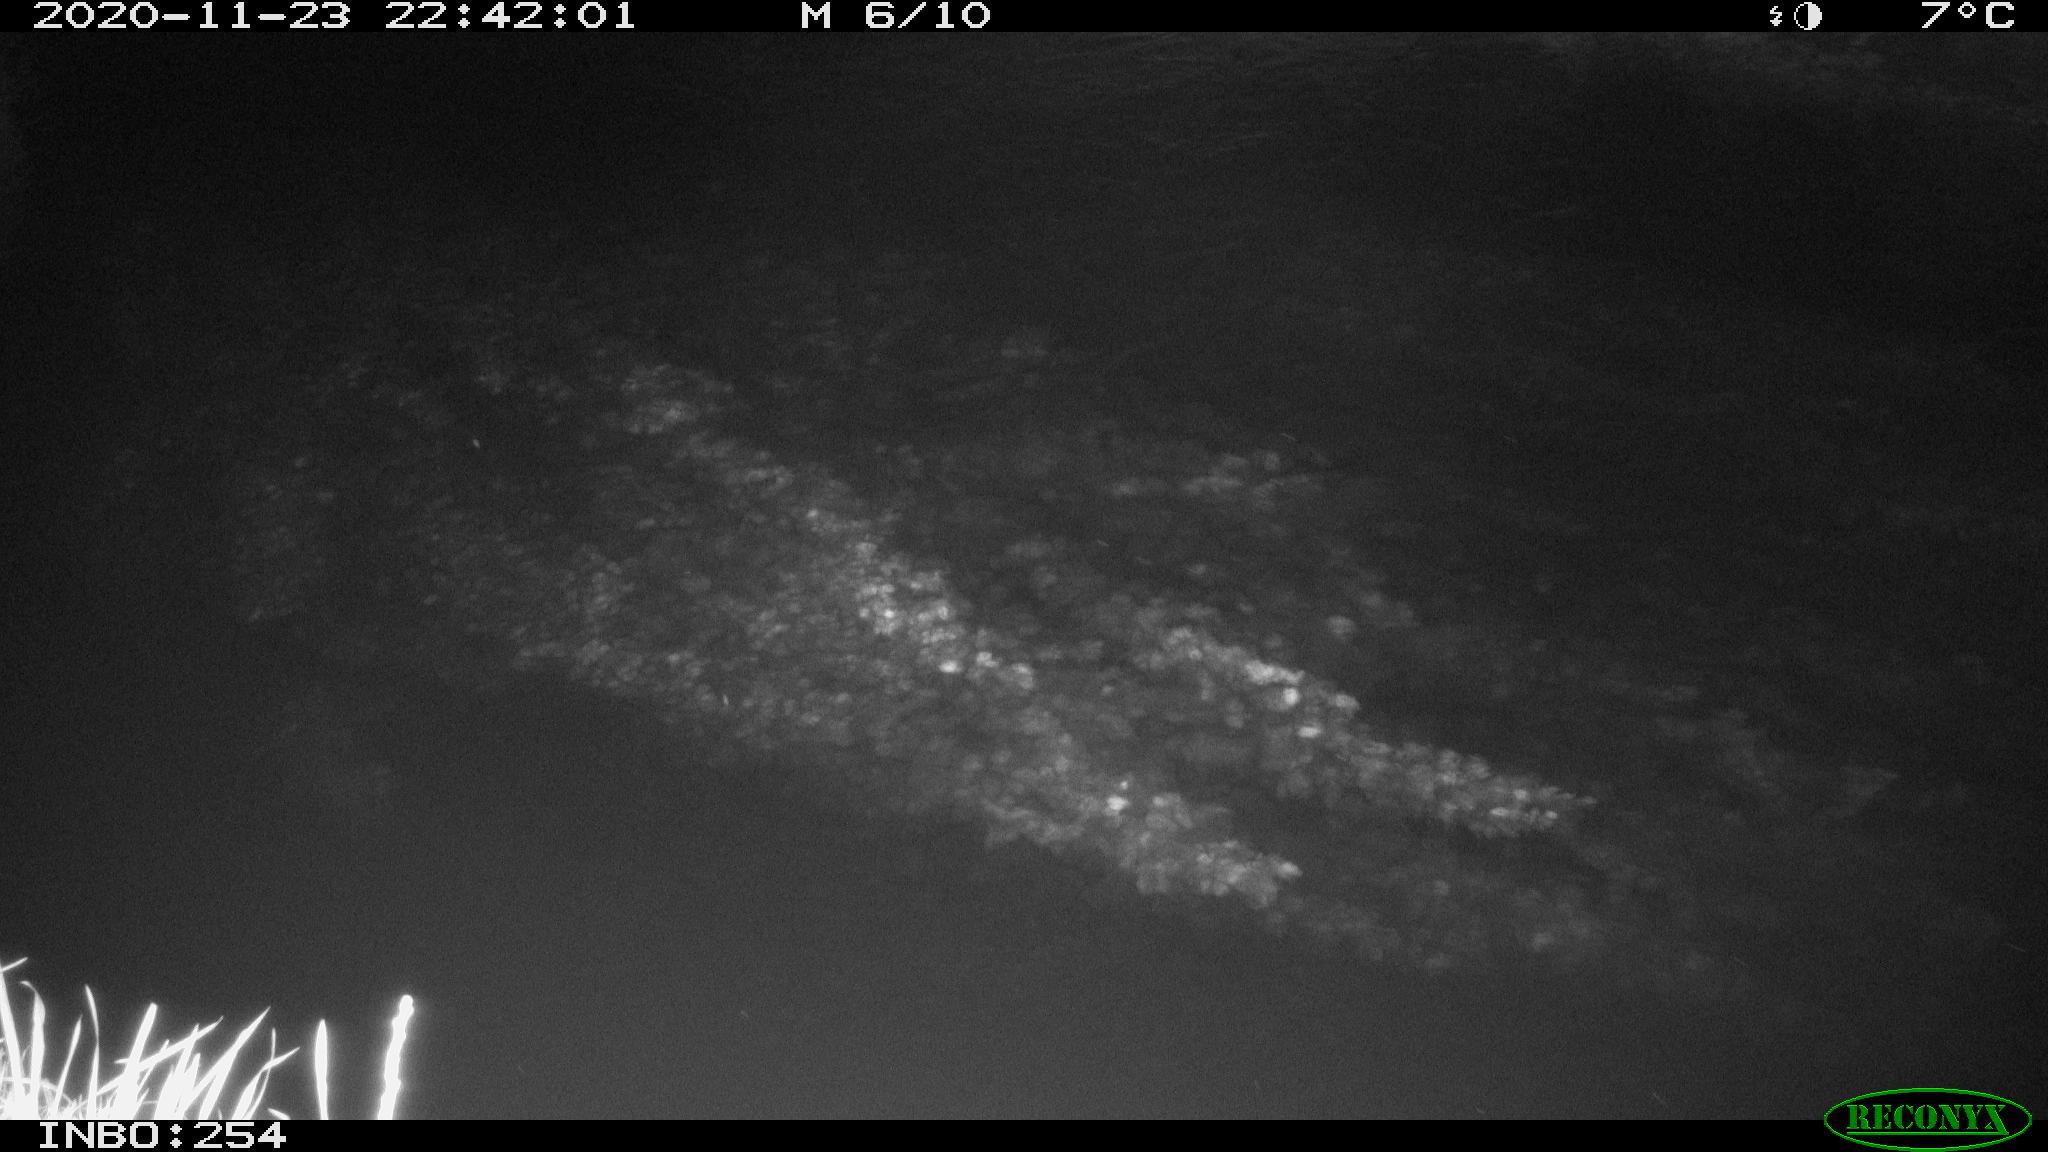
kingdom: Animalia
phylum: Chordata
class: Aves
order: Anseriformes
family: Anatidae
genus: Anas
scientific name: Anas platyrhynchos
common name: Mallard
